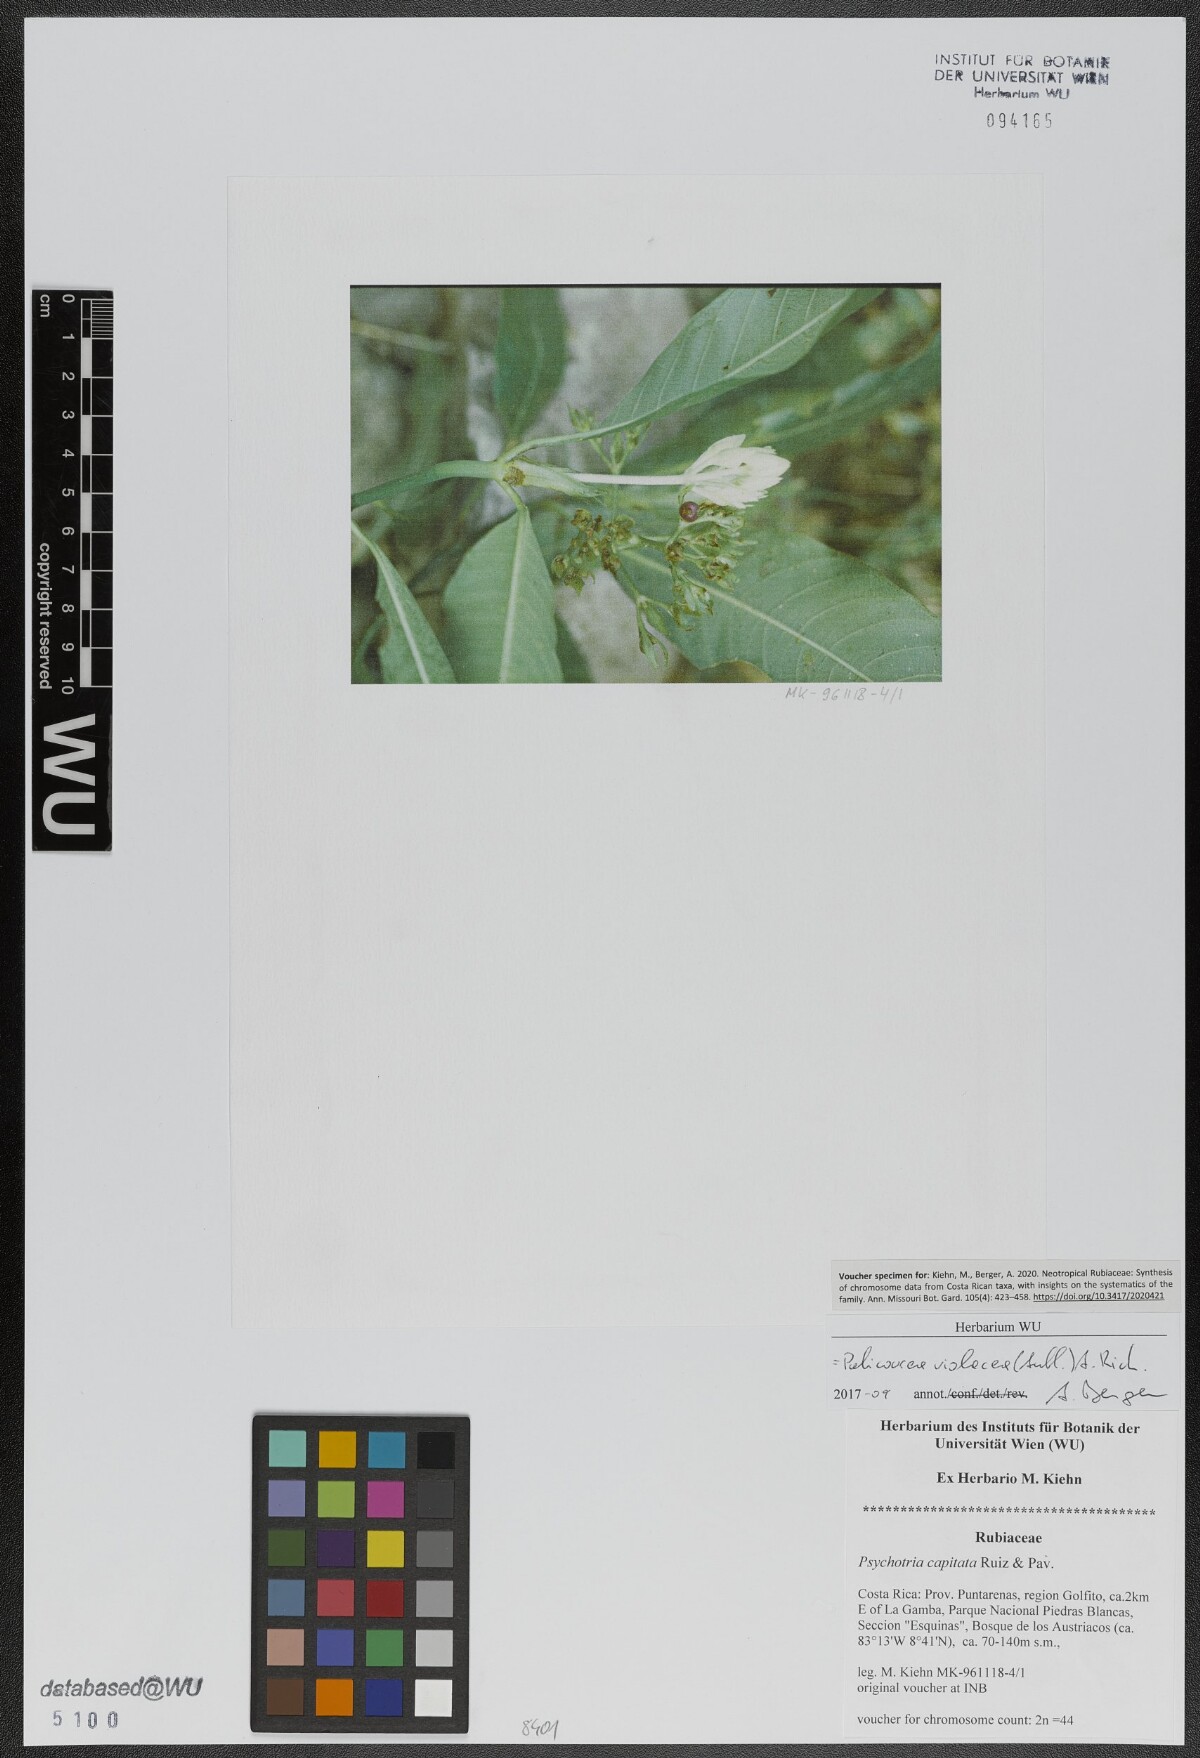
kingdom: Plantae
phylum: Tracheophyta
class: Magnoliopsida
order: Gentianales
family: Rubiaceae
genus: Palicourea
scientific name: Palicourea violacea
